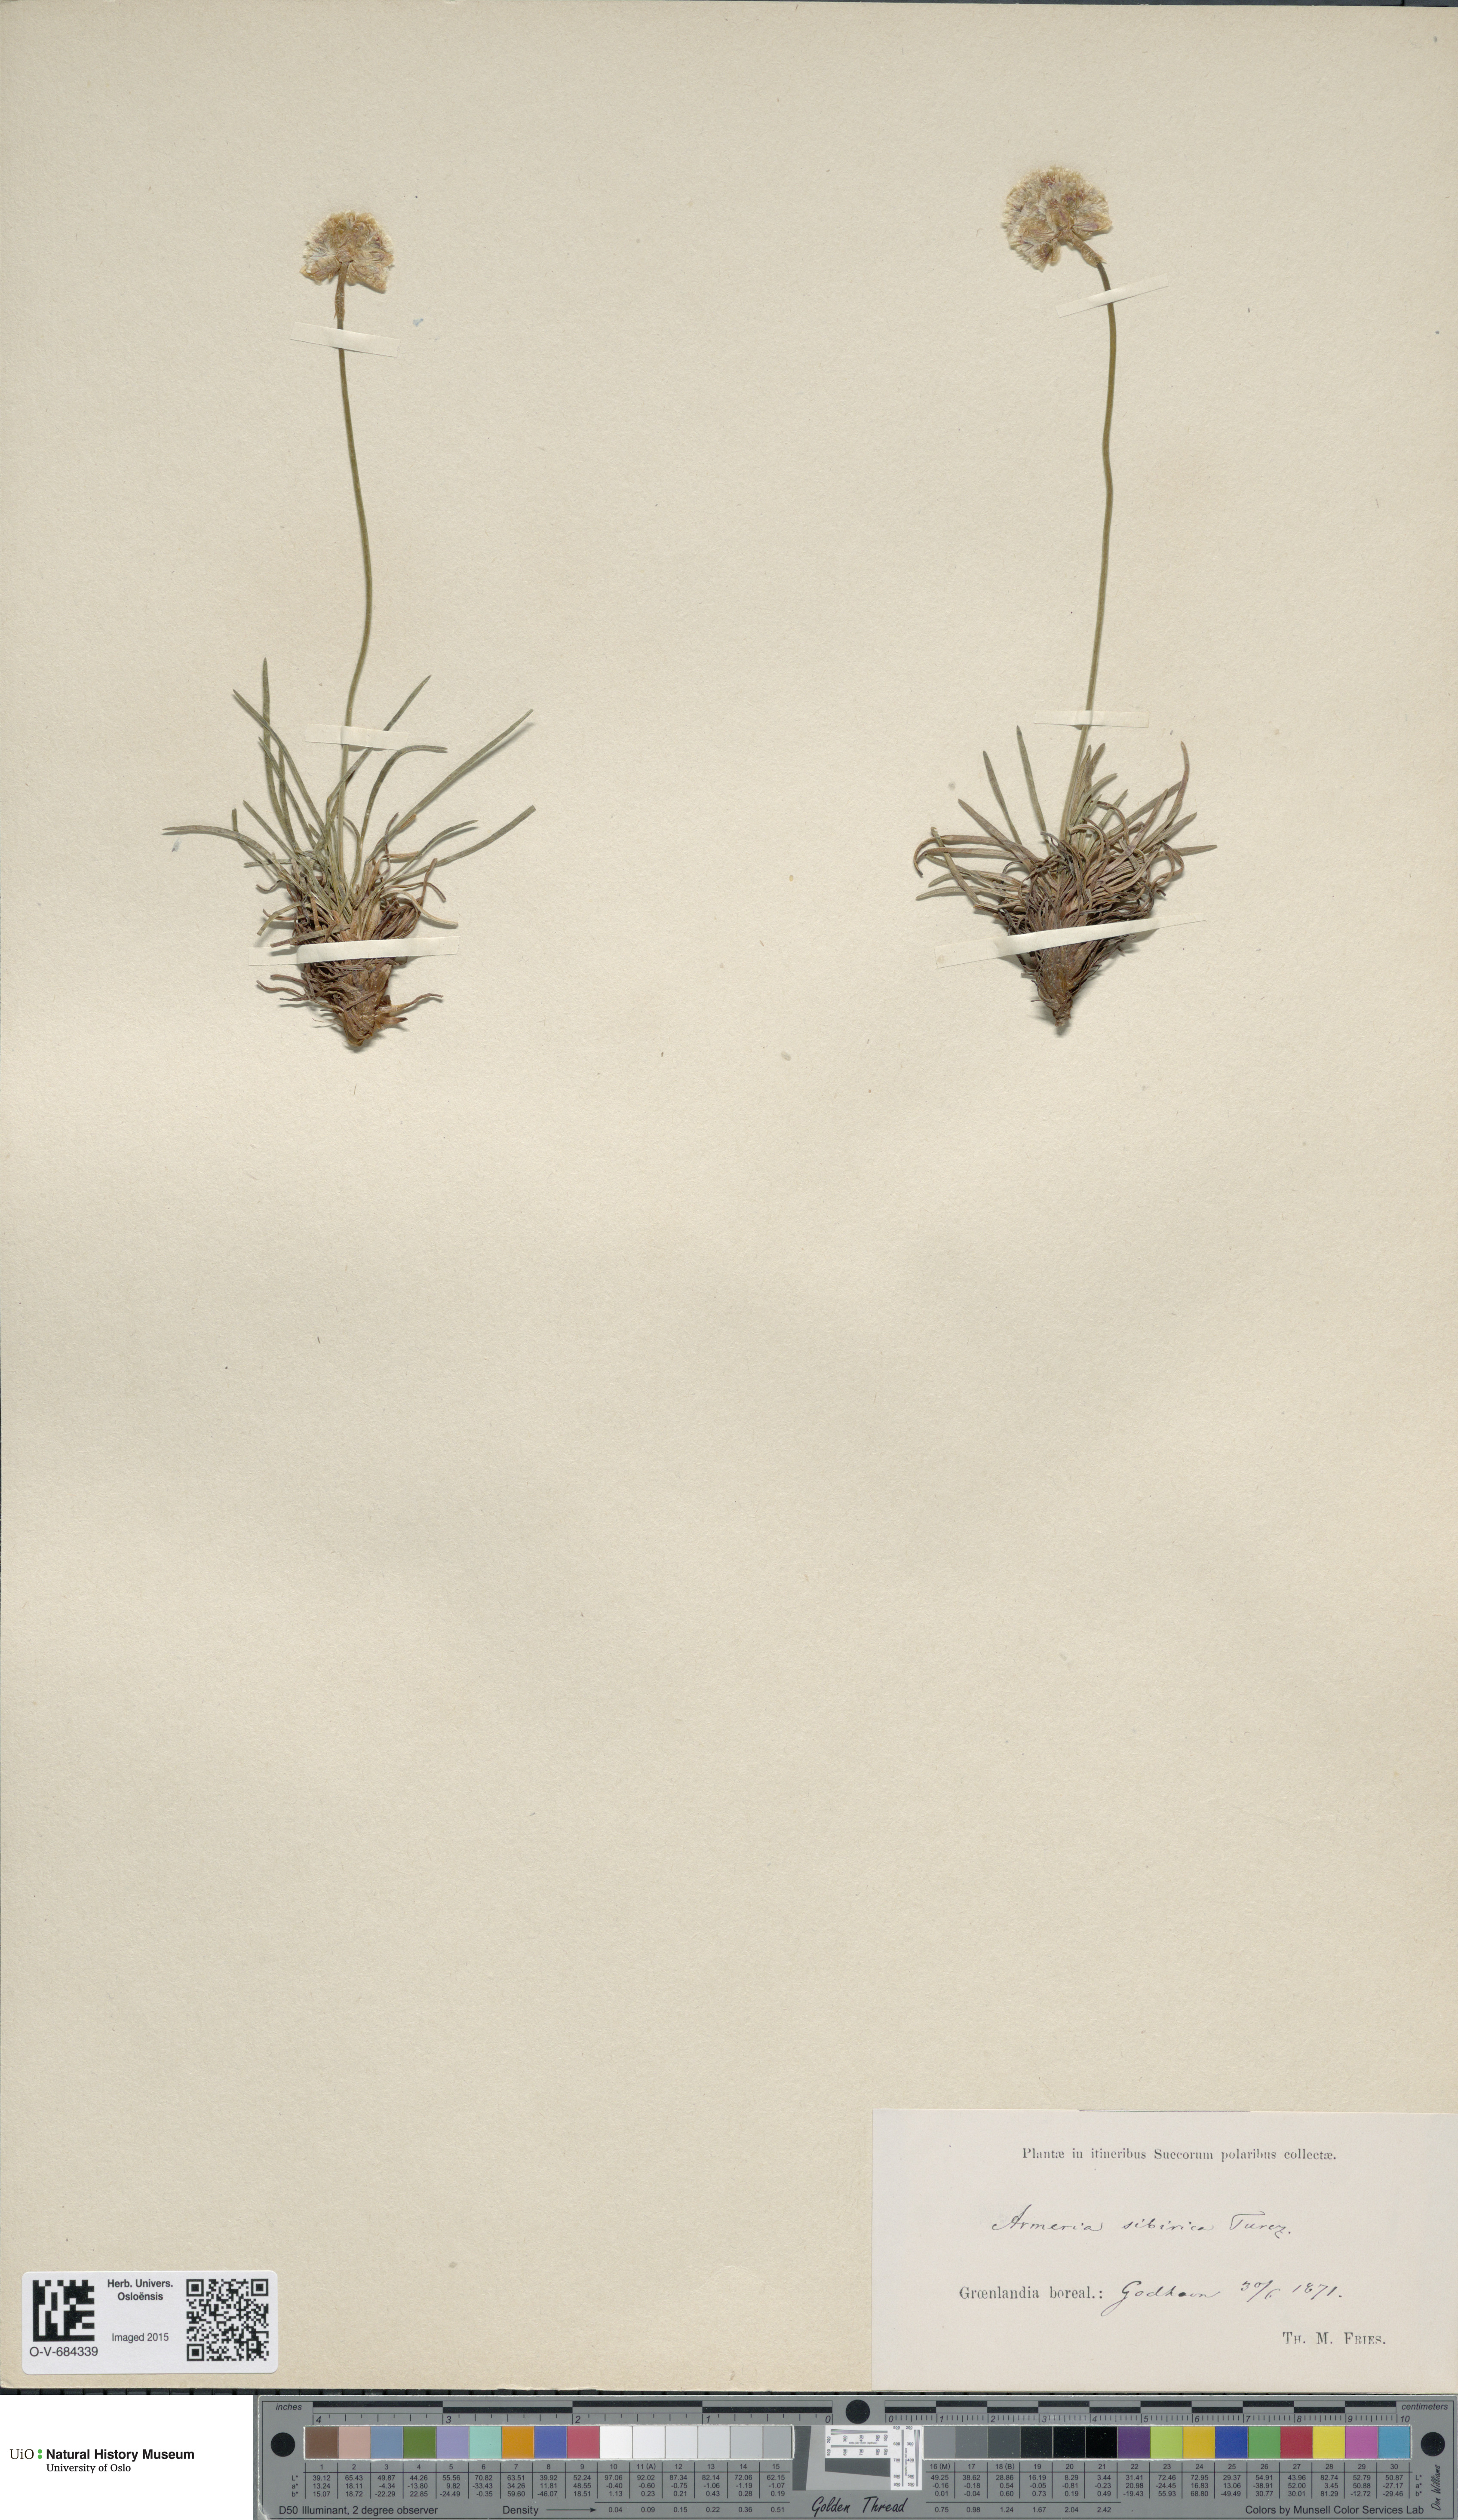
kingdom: Plantae
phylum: Tracheophyta
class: Magnoliopsida
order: Caryophyllales
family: Plumbaginaceae
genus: Armeria
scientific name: Armeria maritima
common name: Thrift
